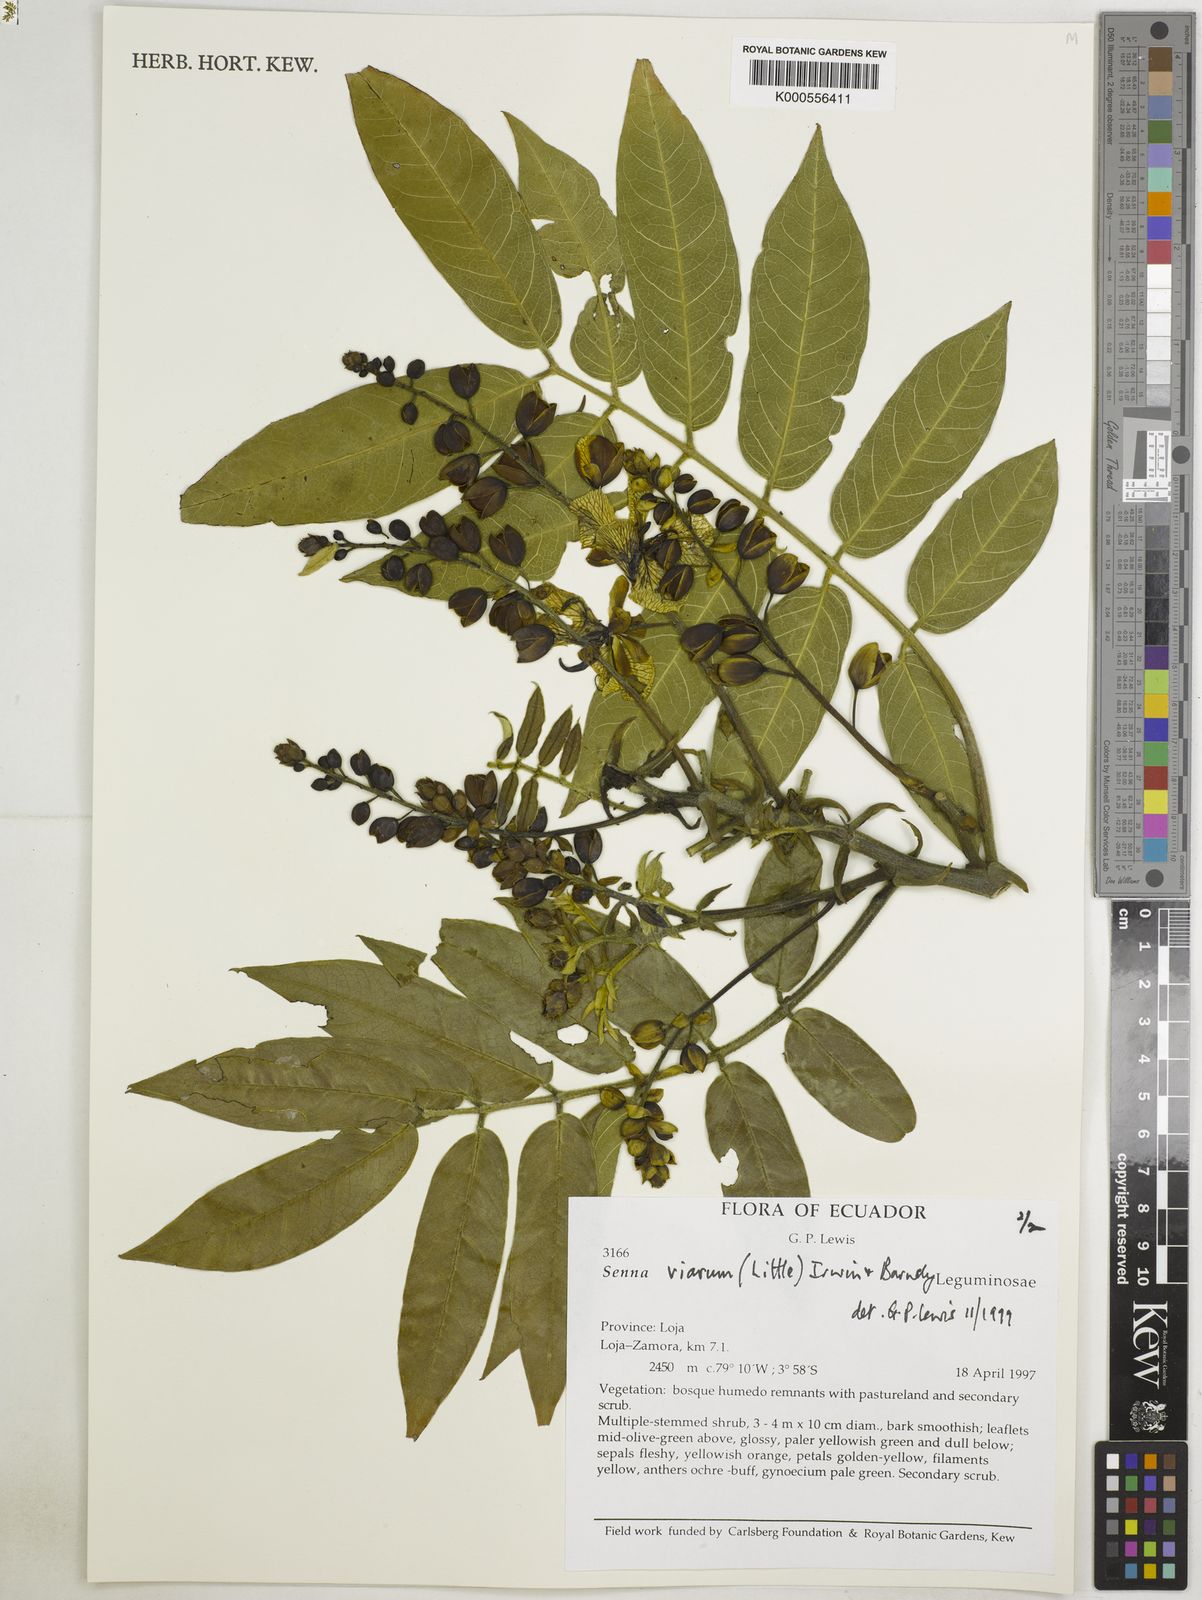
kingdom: Plantae
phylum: Tracheophyta
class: Magnoliopsida
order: Fabales
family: Fabaceae
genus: Senna
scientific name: Senna viarum
